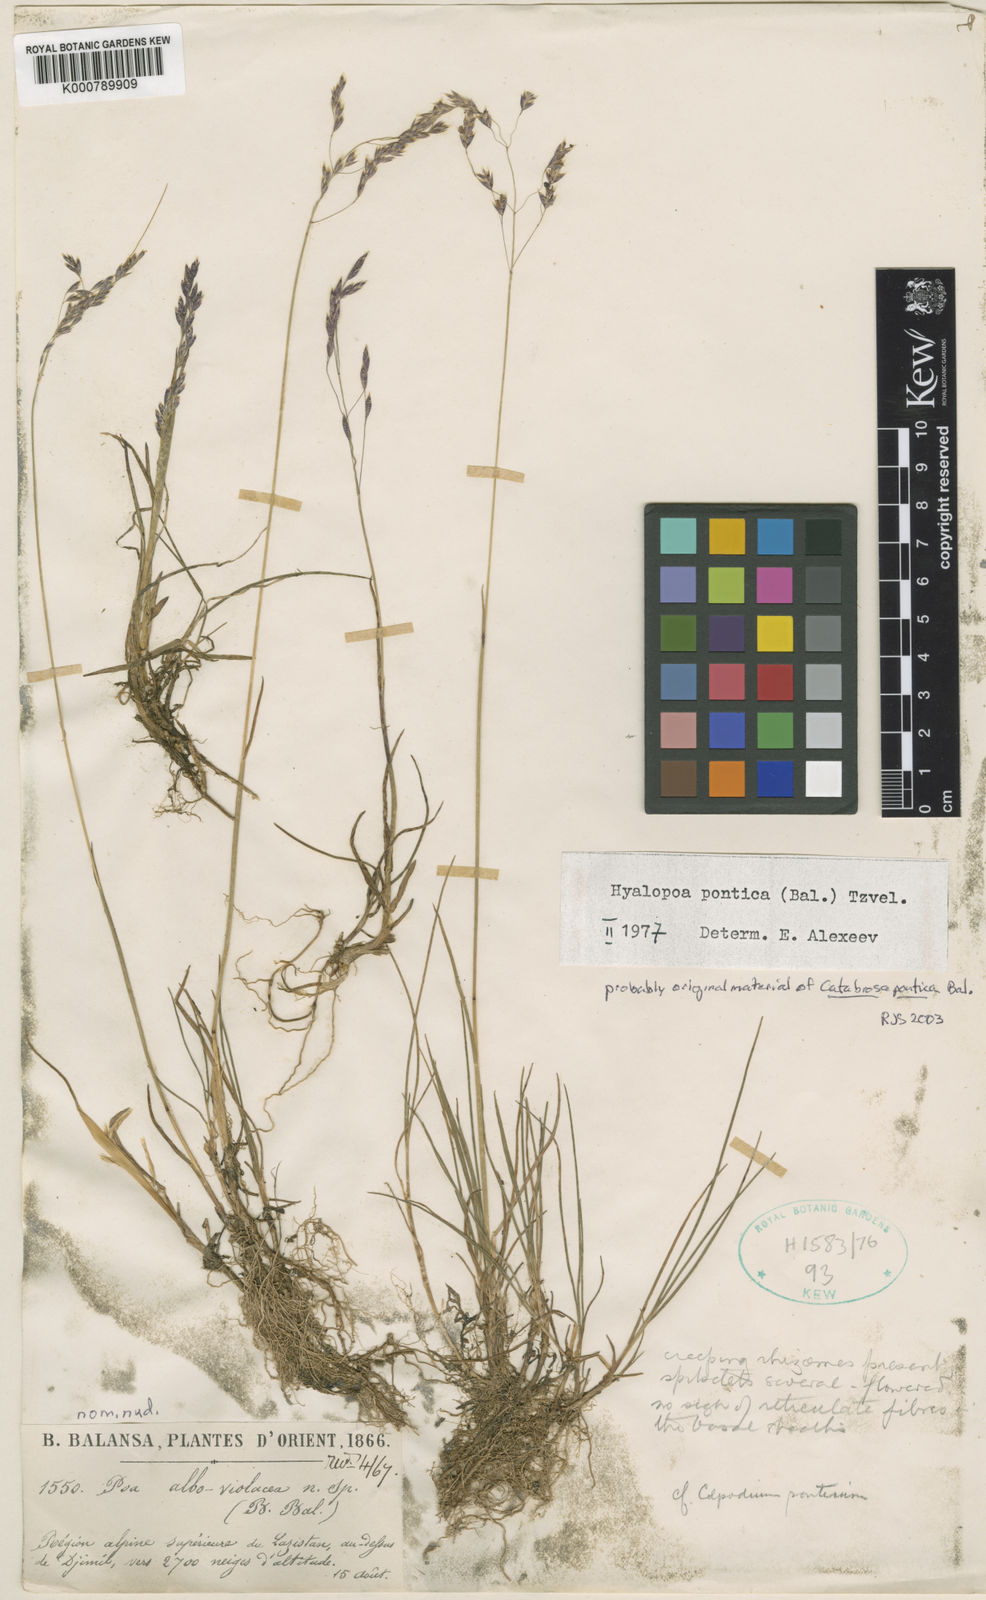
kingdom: Plantae
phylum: Tracheophyta
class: Liliopsida
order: Poales
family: Poaceae
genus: Colpodium
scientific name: Colpodium
